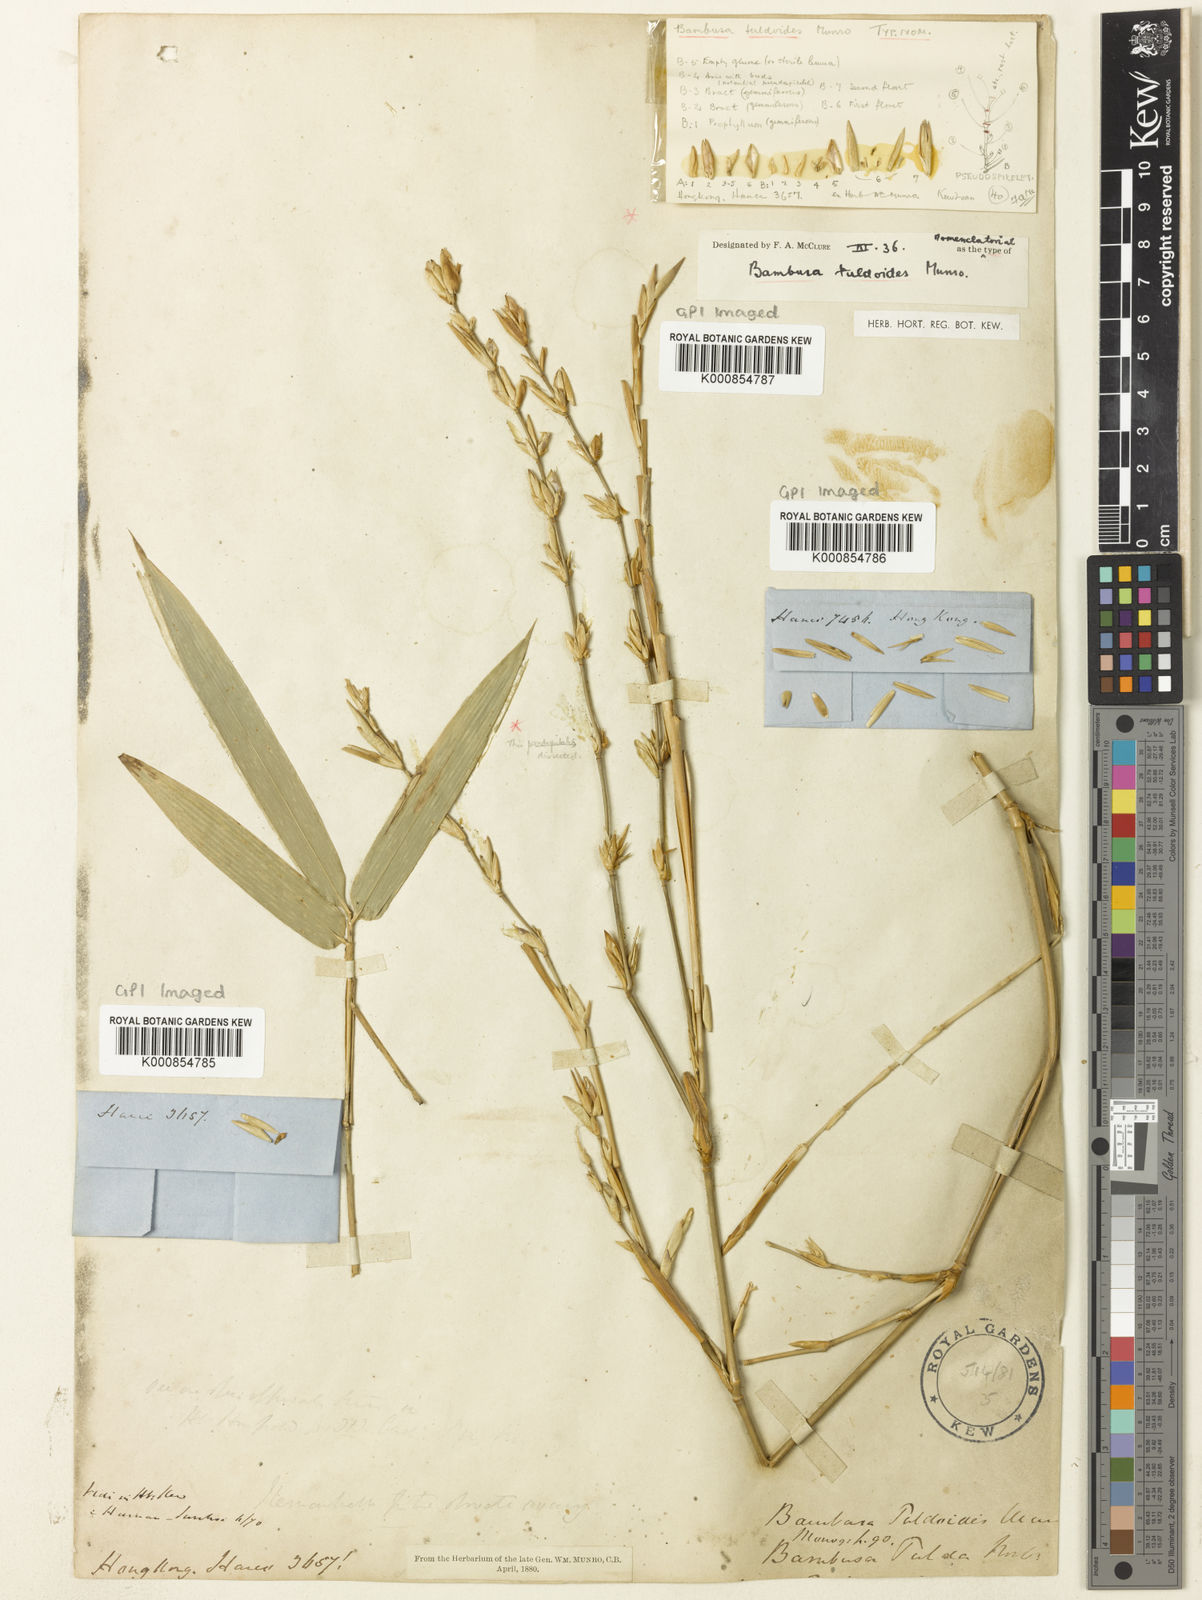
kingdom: Plantae
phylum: Tracheophyta
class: Liliopsida
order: Poales
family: Poaceae
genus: Bambusa
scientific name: Bambusa tuldoides
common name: Verdant bamboo
